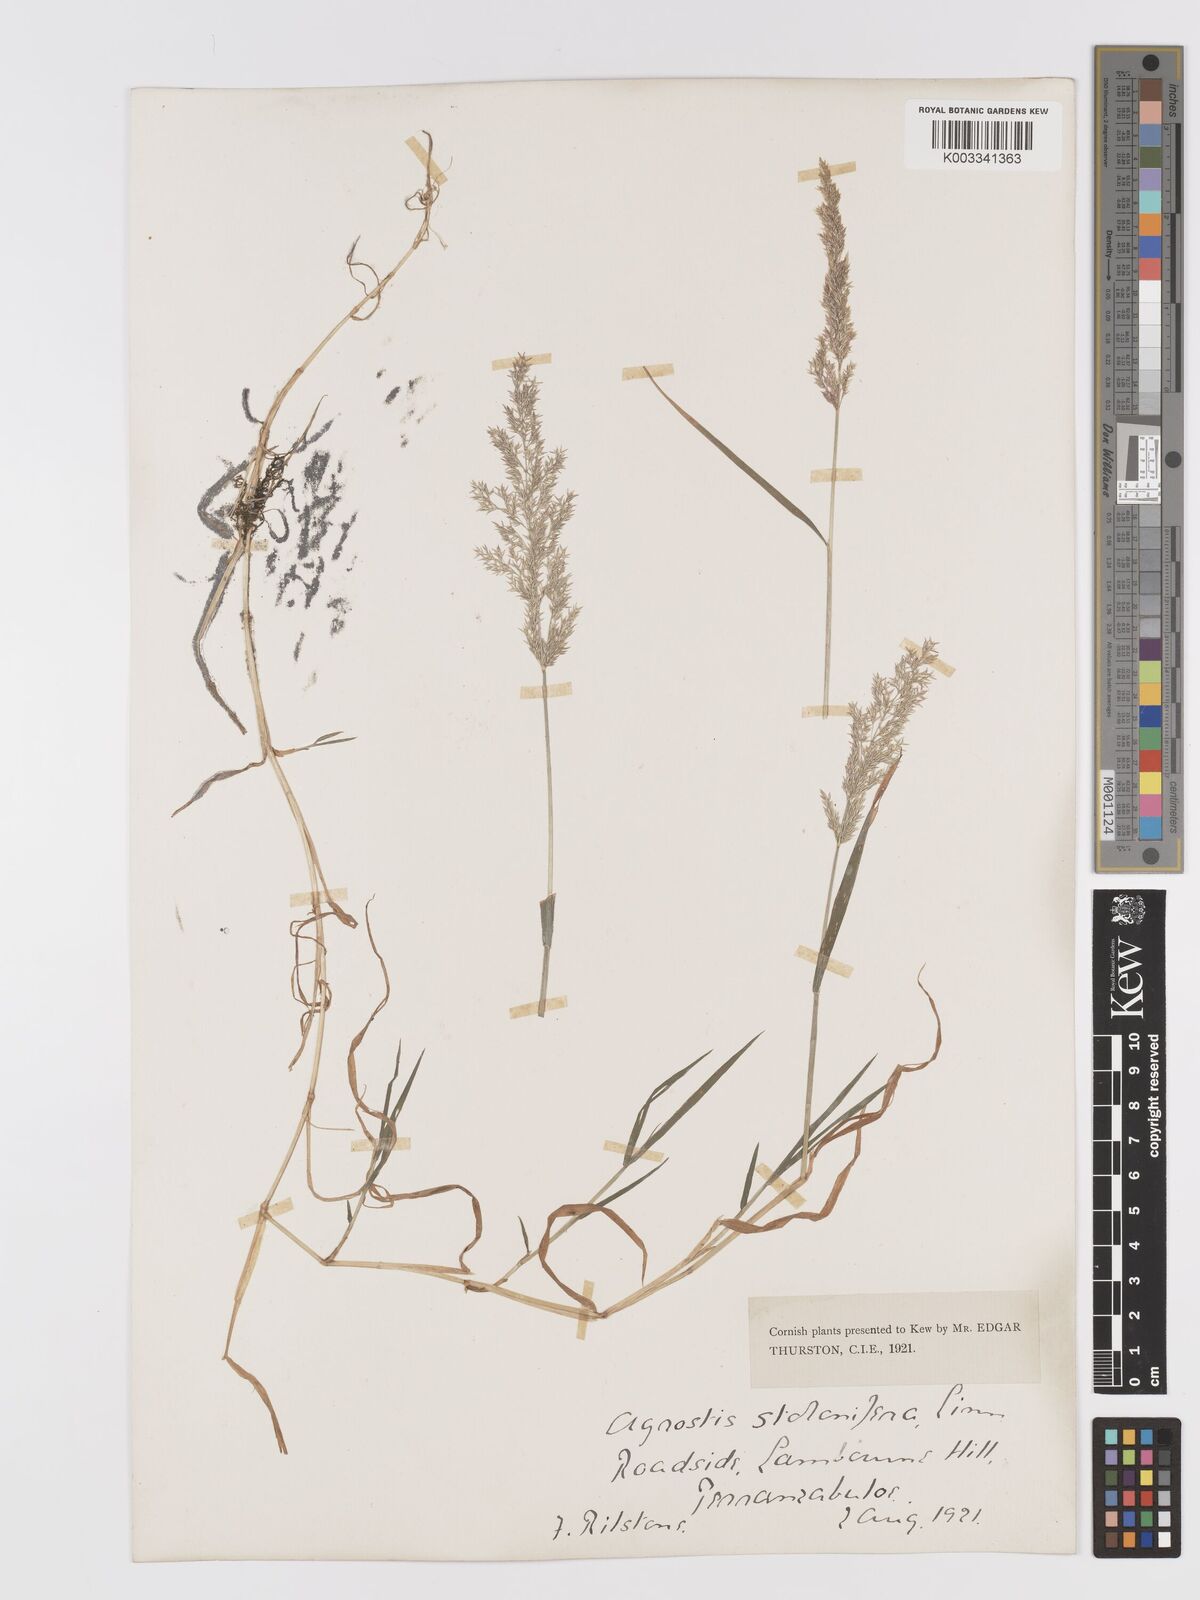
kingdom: Plantae
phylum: Tracheophyta
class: Liliopsida
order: Poales
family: Poaceae
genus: Agrostis
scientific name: Agrostis stolonifera
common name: Creeping bentgrass
